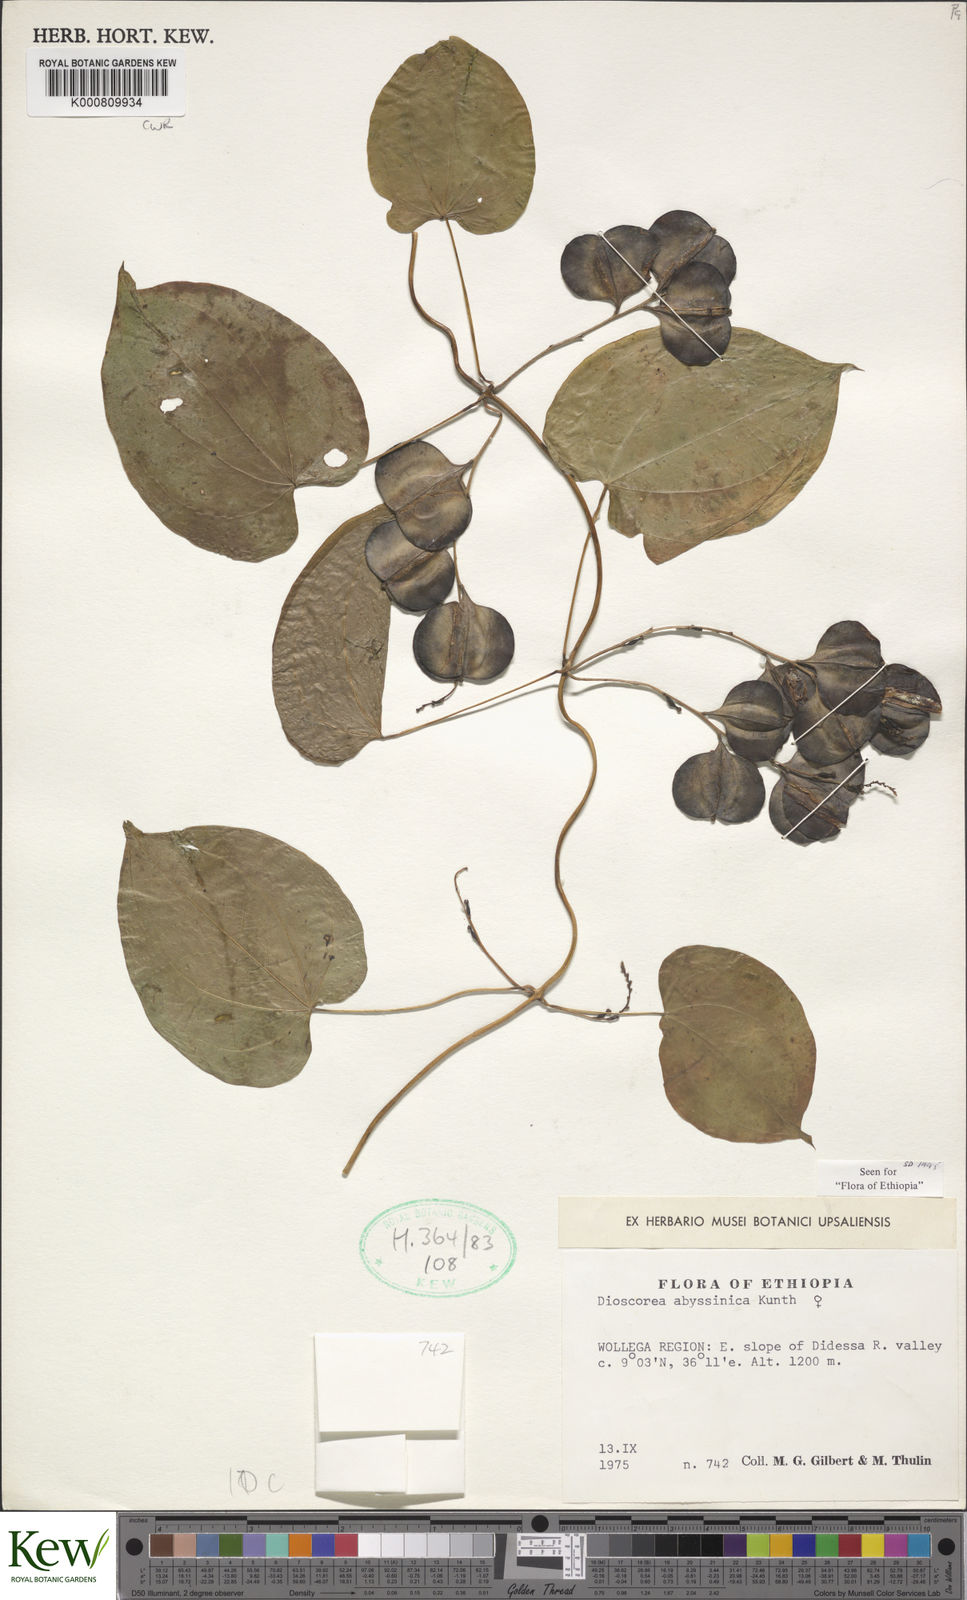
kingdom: Plantae
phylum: Tracheophyta
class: Liliopsida
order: Dioscoreales
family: Dioscoreaceae
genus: Dioscorea
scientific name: Dioscorea abyssinica
